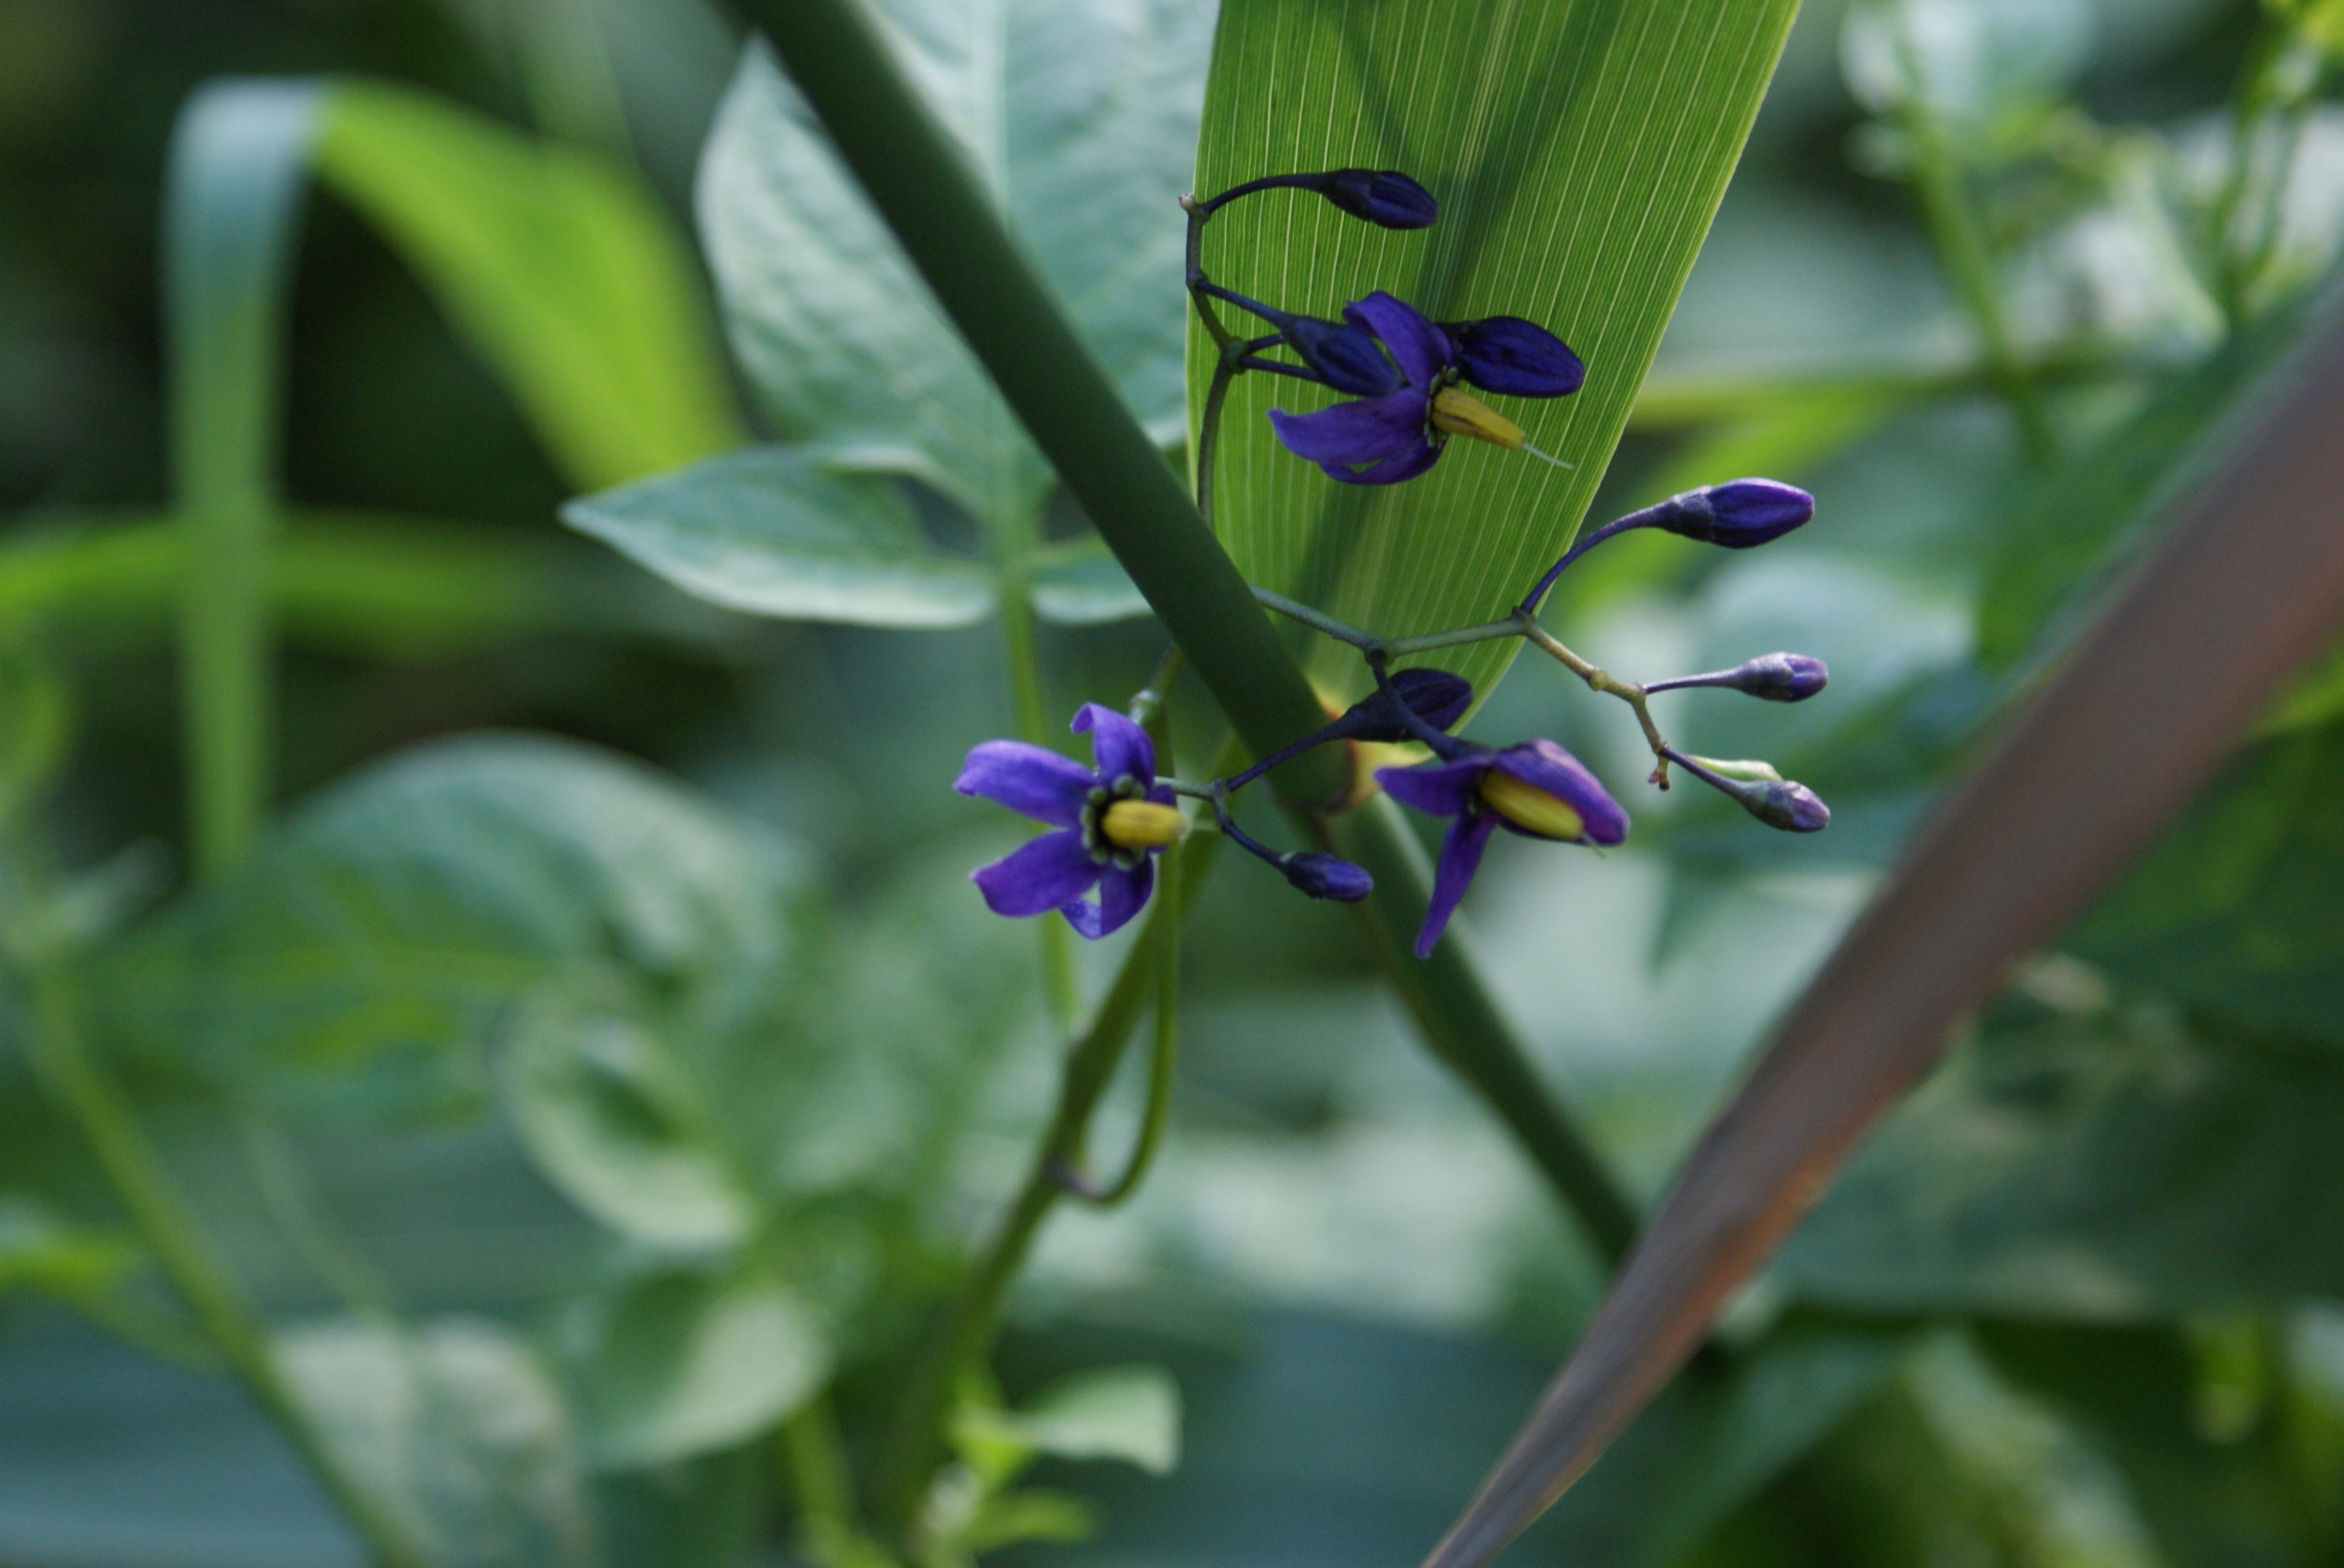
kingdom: Plantae
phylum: Tracheophyta
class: Magnoliopsida
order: Solanales
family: Solanaceae
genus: Solanum
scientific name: Solanum dulcamara
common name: Bittersød natskygge
